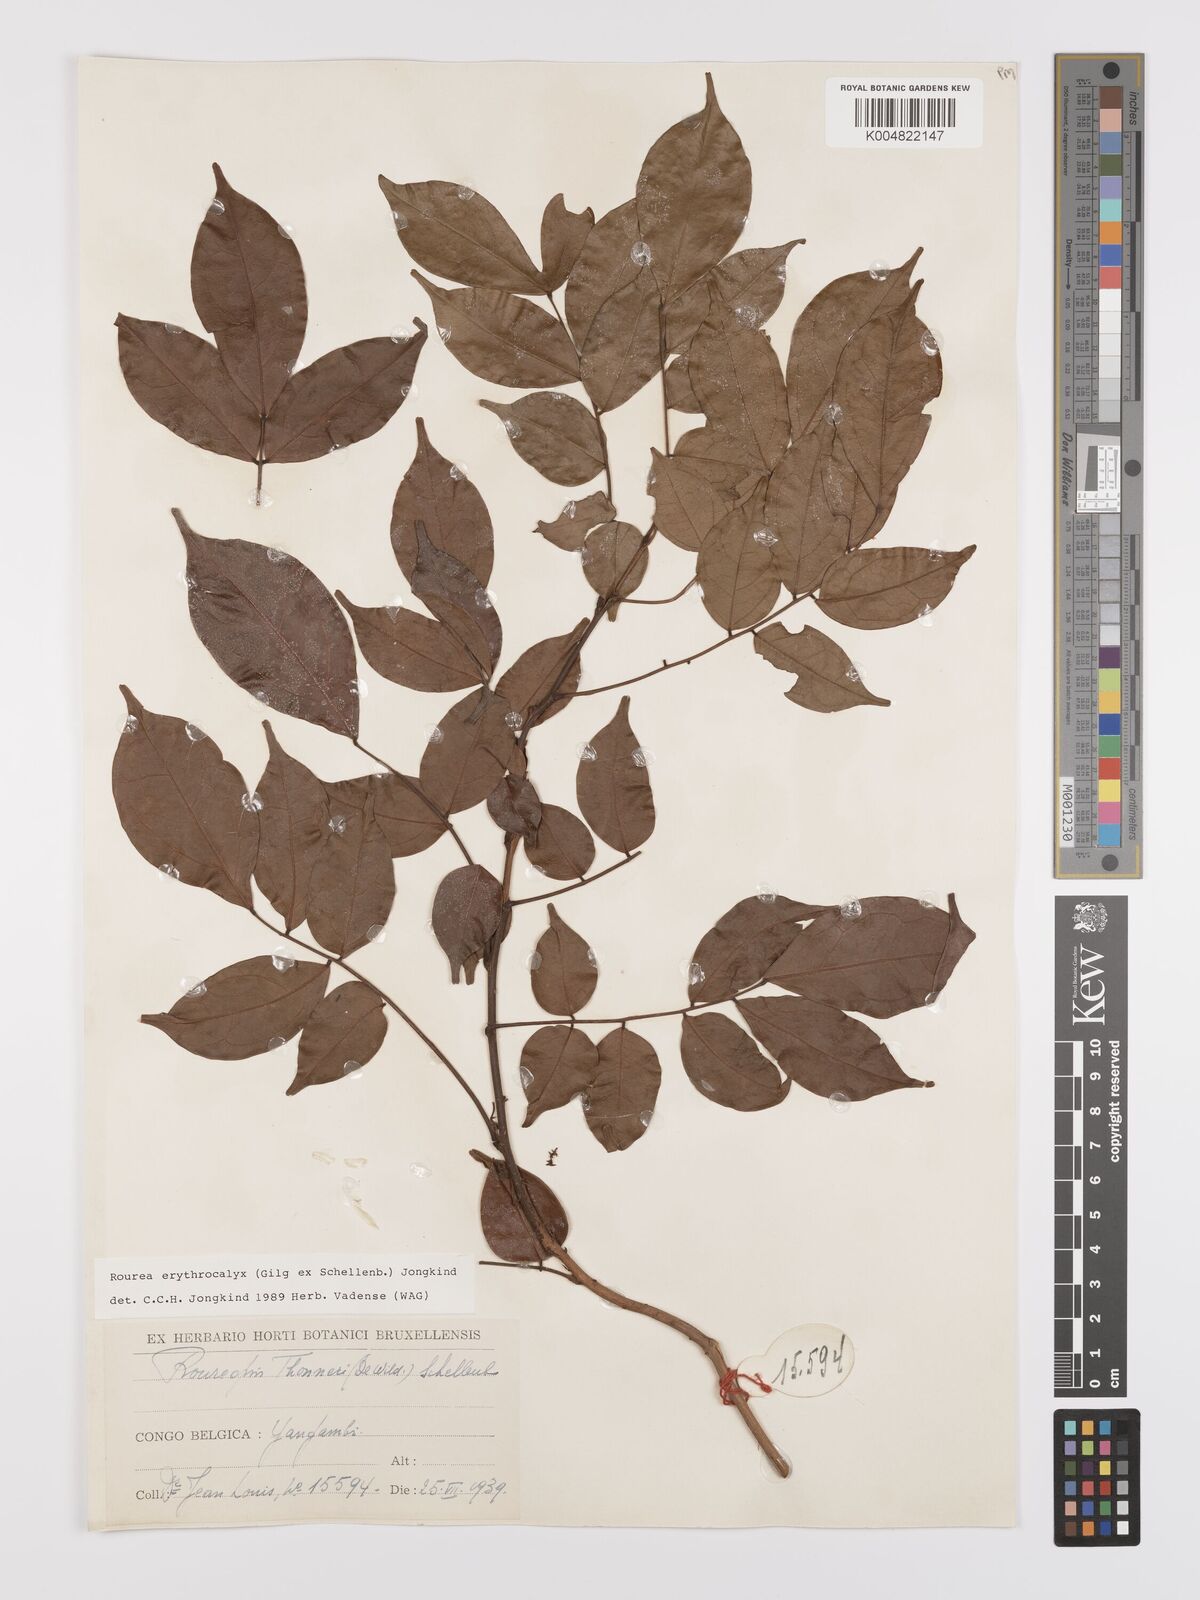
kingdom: Plantae
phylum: Tracheophyta
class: Magnoliopsida
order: Oxalidales
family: Connaraceae
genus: Rourea
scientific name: Rourea erythrocalyx
